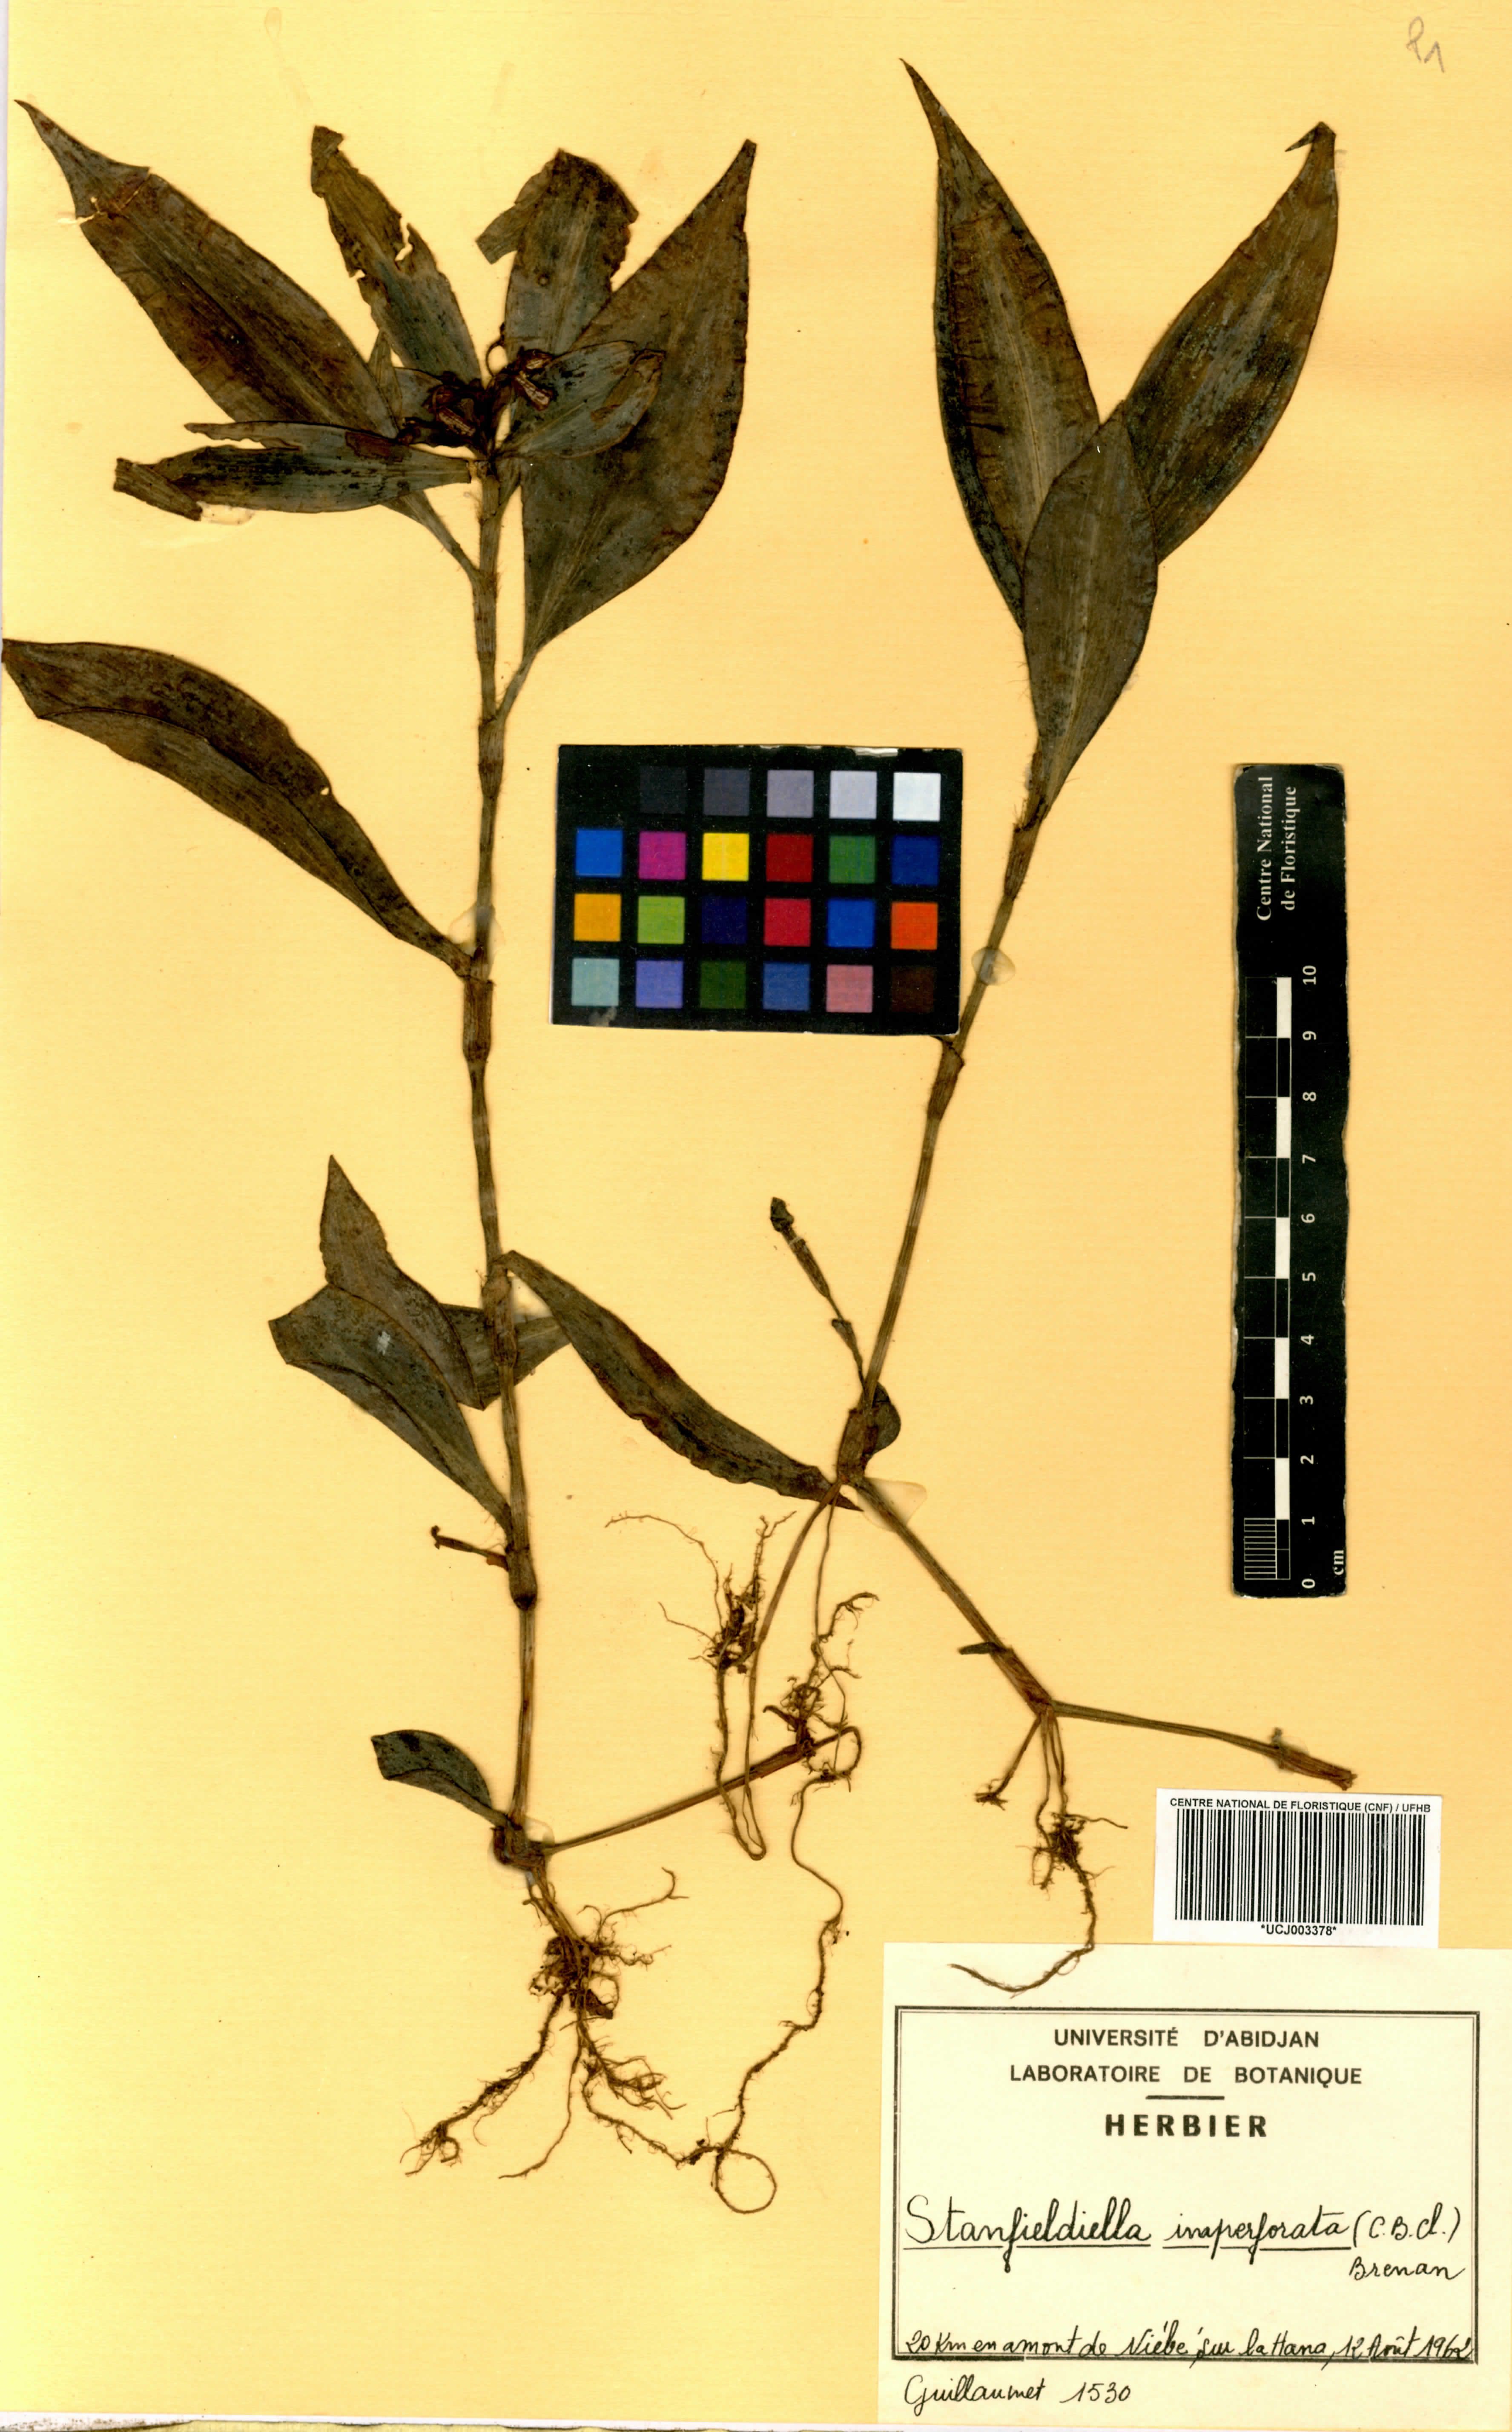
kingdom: Plantae
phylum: Tracheophyta
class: Liliopsida
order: Commelinales
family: Commelinaceae
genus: Stanfieldiella
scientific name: Stanfieldiella imperforata
